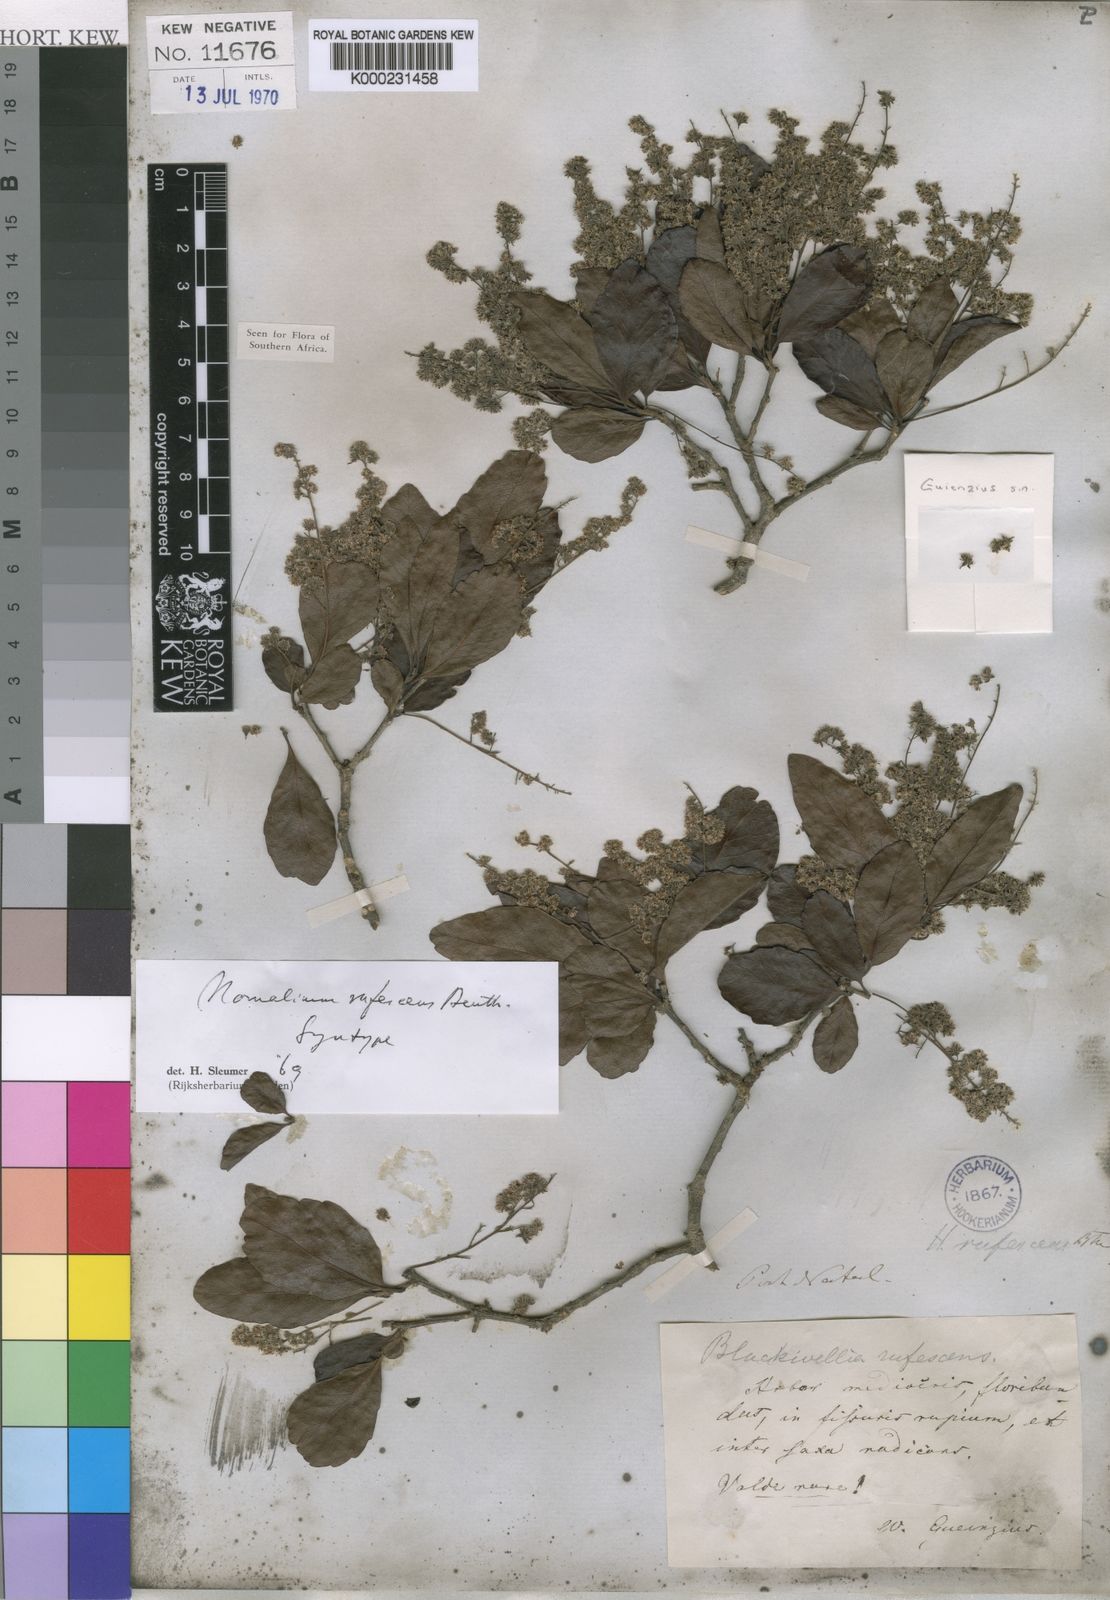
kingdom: Plantae
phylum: Tracheophyta
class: Magnoliopsida
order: Malpighiales
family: Salicaceae
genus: Homalium
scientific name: Homalium
